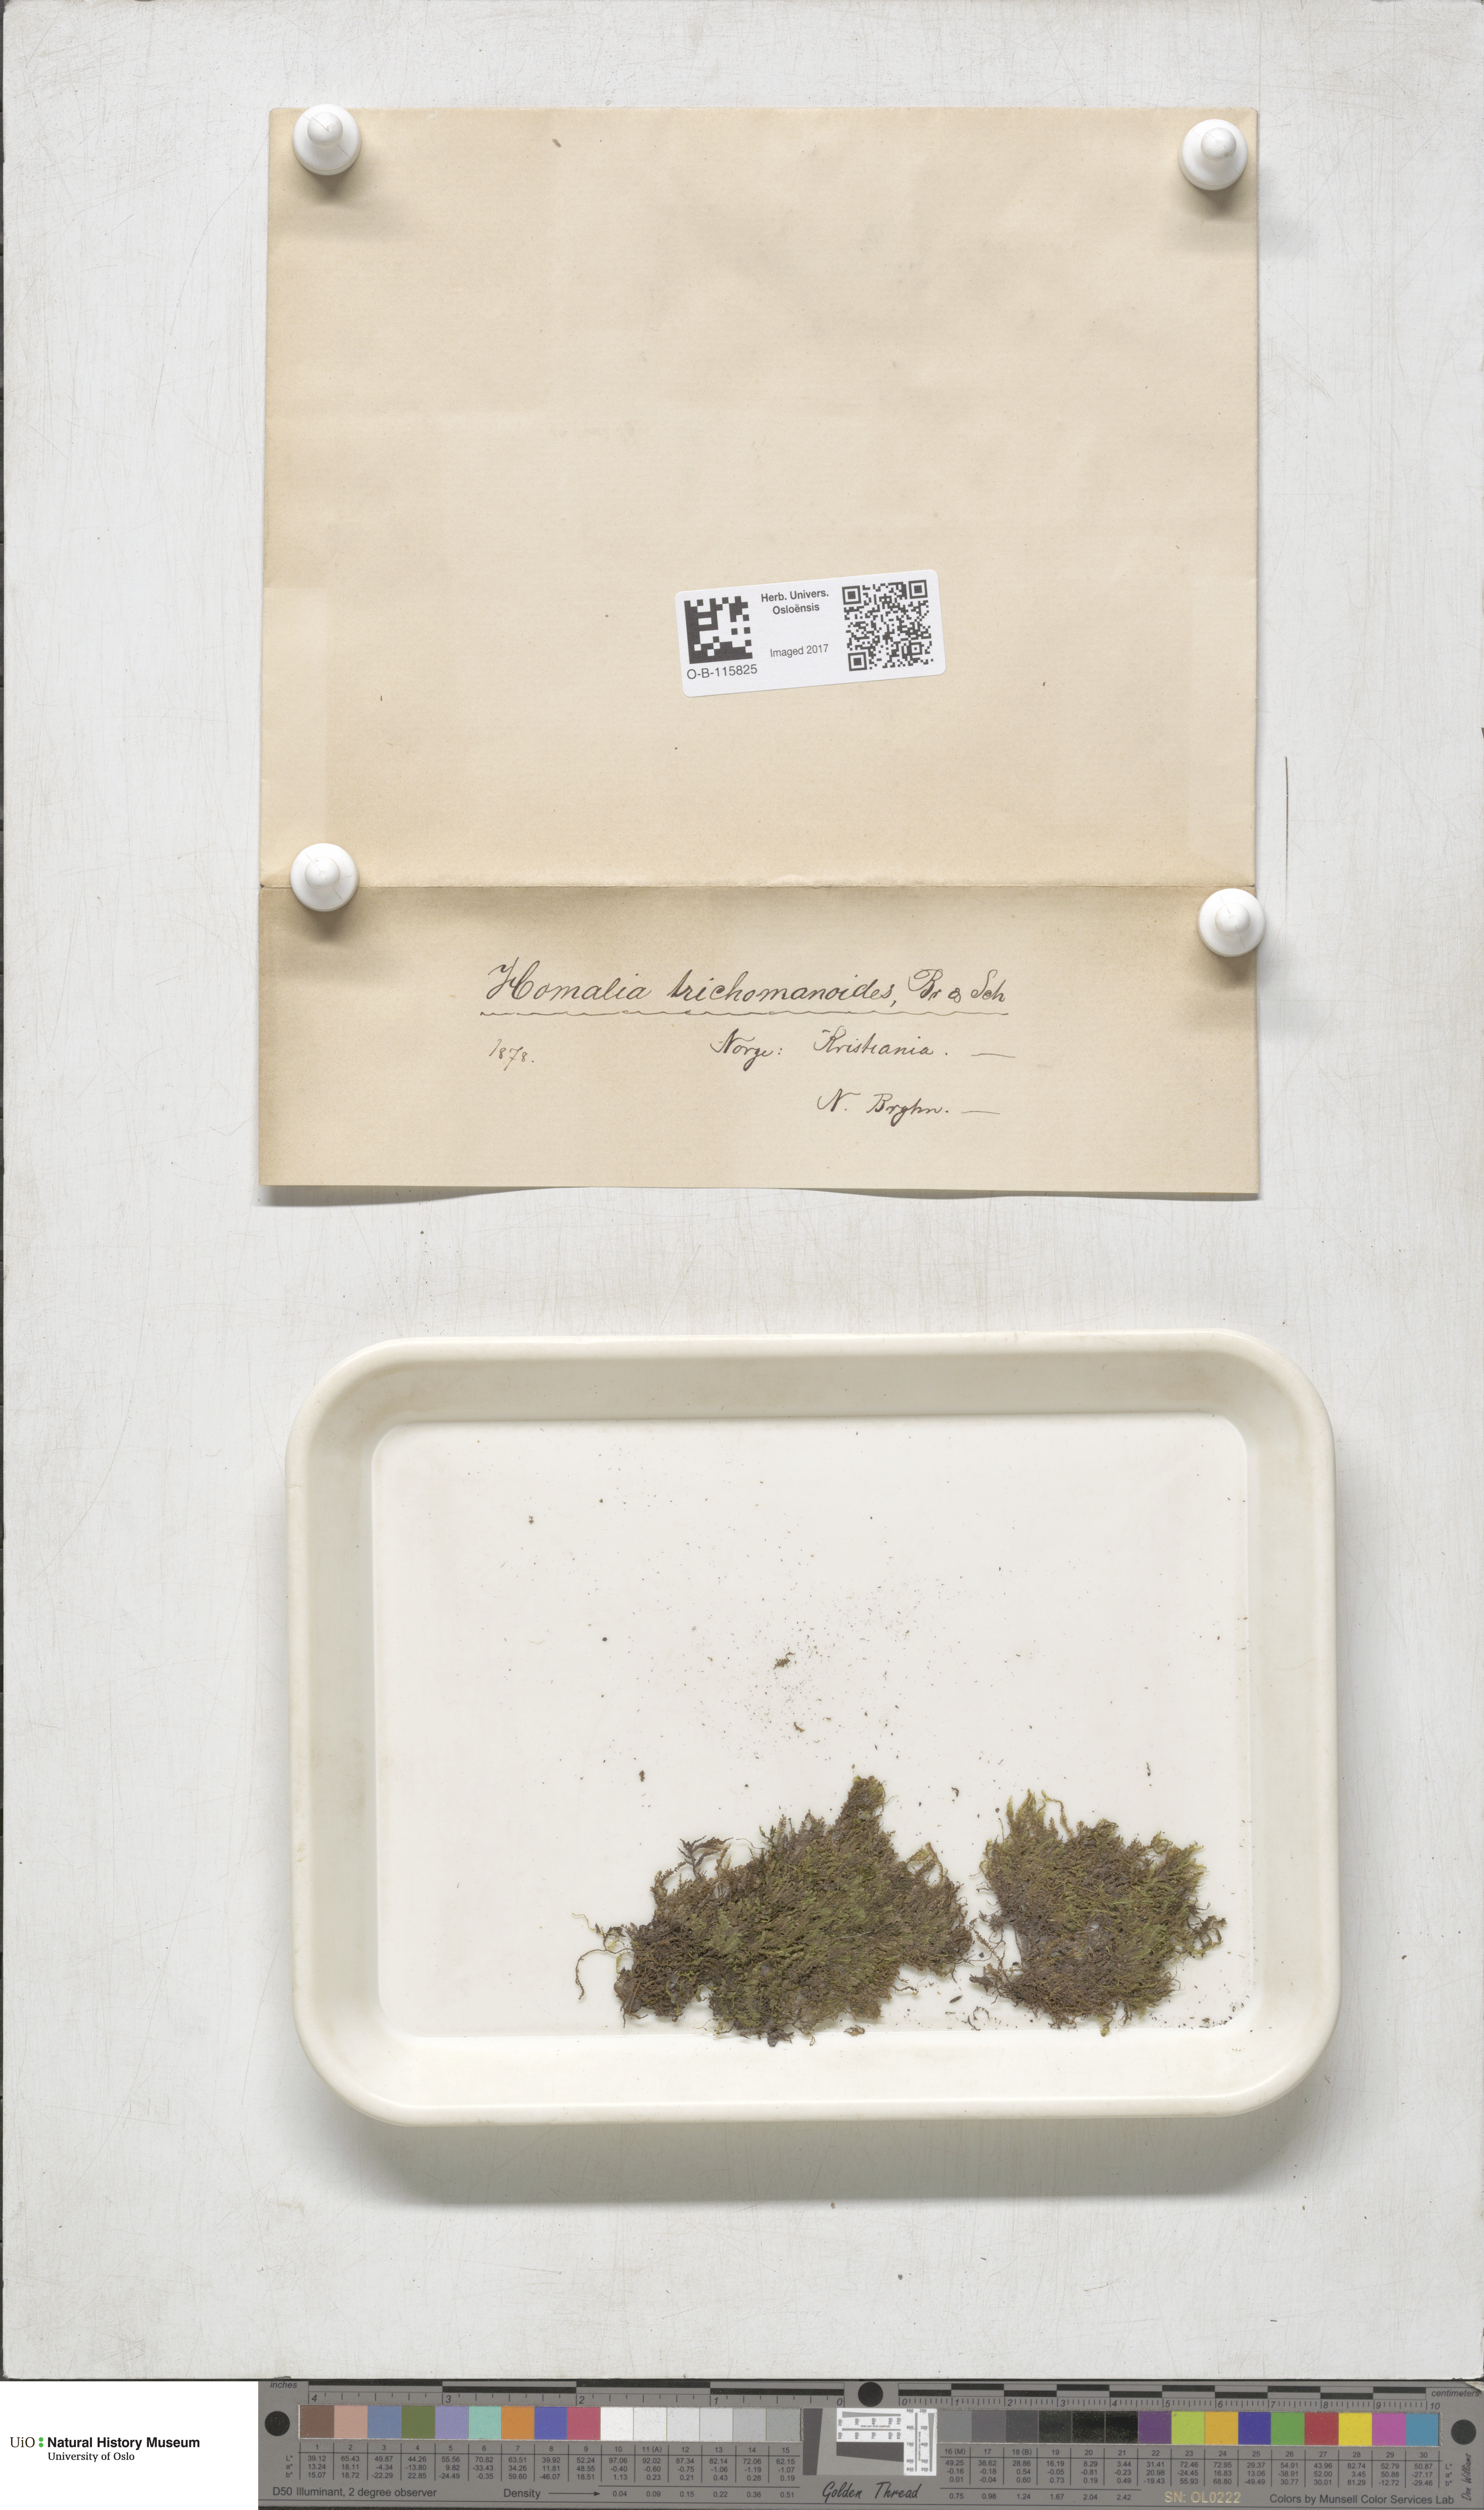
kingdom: Plantae
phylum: Bryophyta
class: Bryopsida
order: Hypnales
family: Neckeraceae
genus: Homalia
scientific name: Homalia trichomanoides
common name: Lime homalia moss
